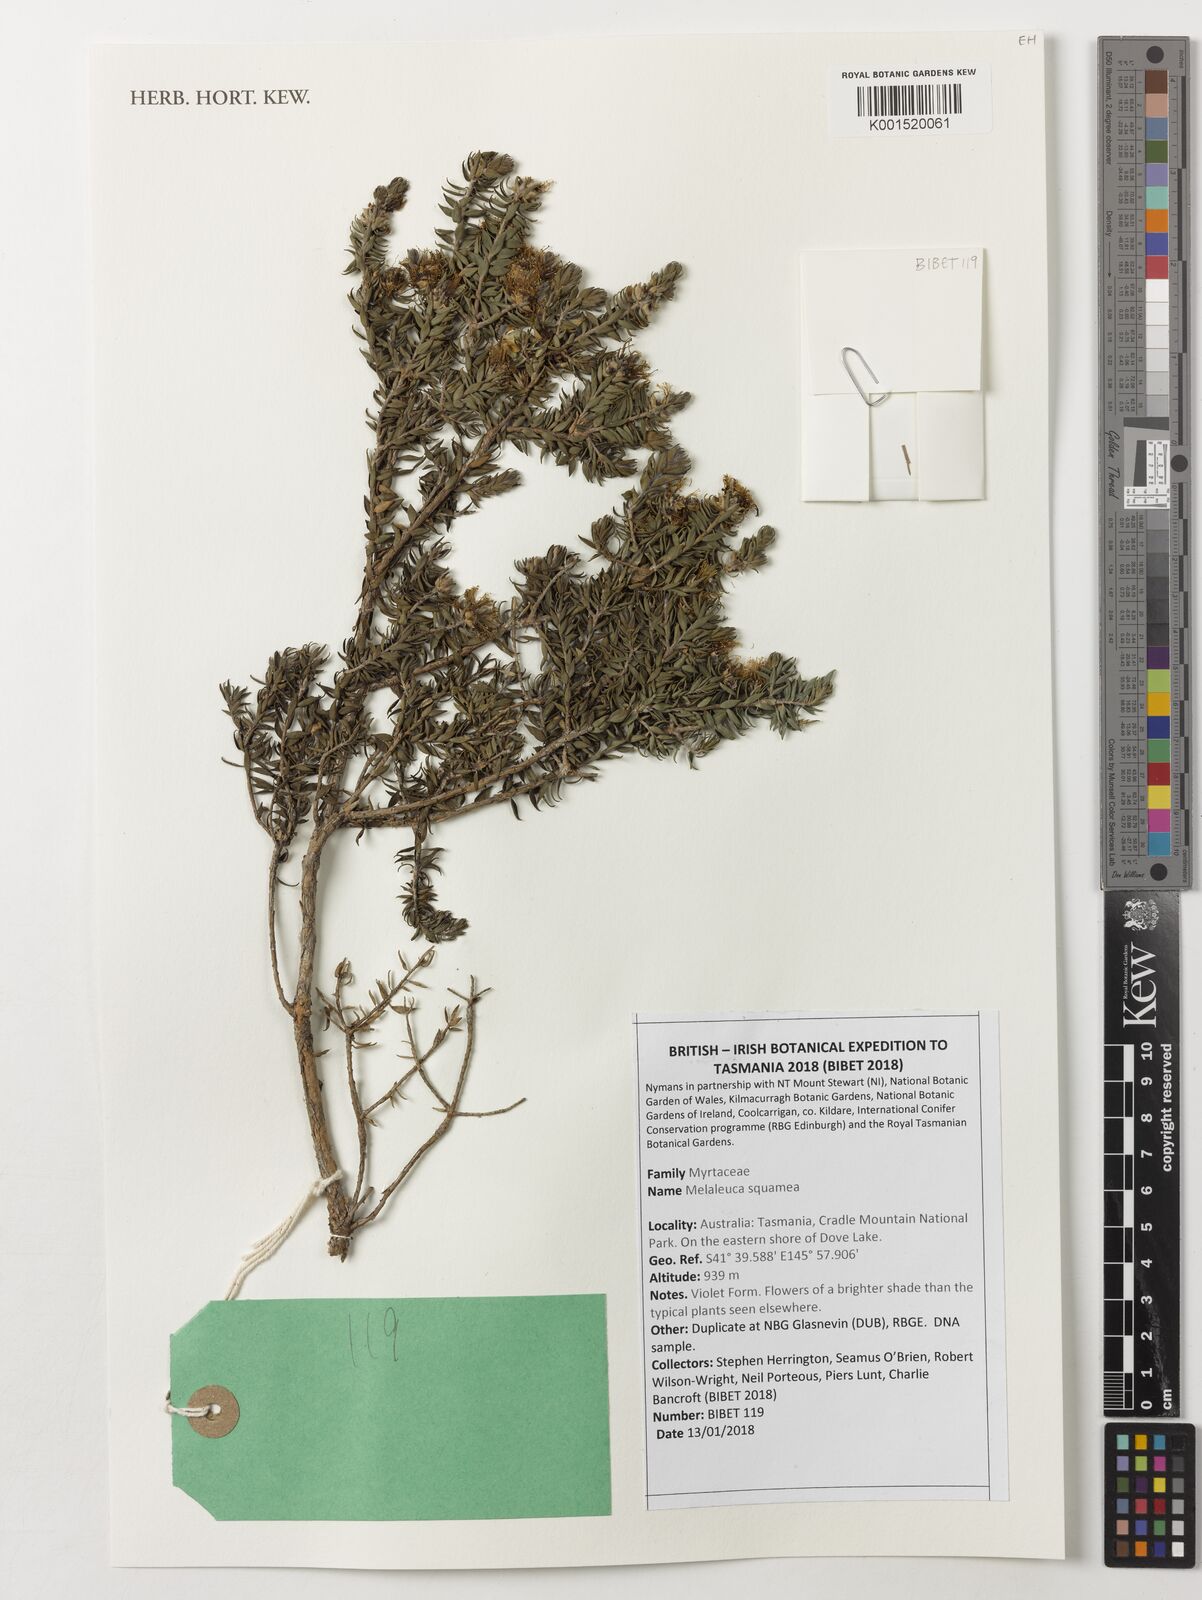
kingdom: Plantae
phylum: Tracheophyta
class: Magnoliopsida
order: Myrtales
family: Myrtaceae
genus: Melaleuca
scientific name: Melaleuca squamea
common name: Swamp melaleuca
